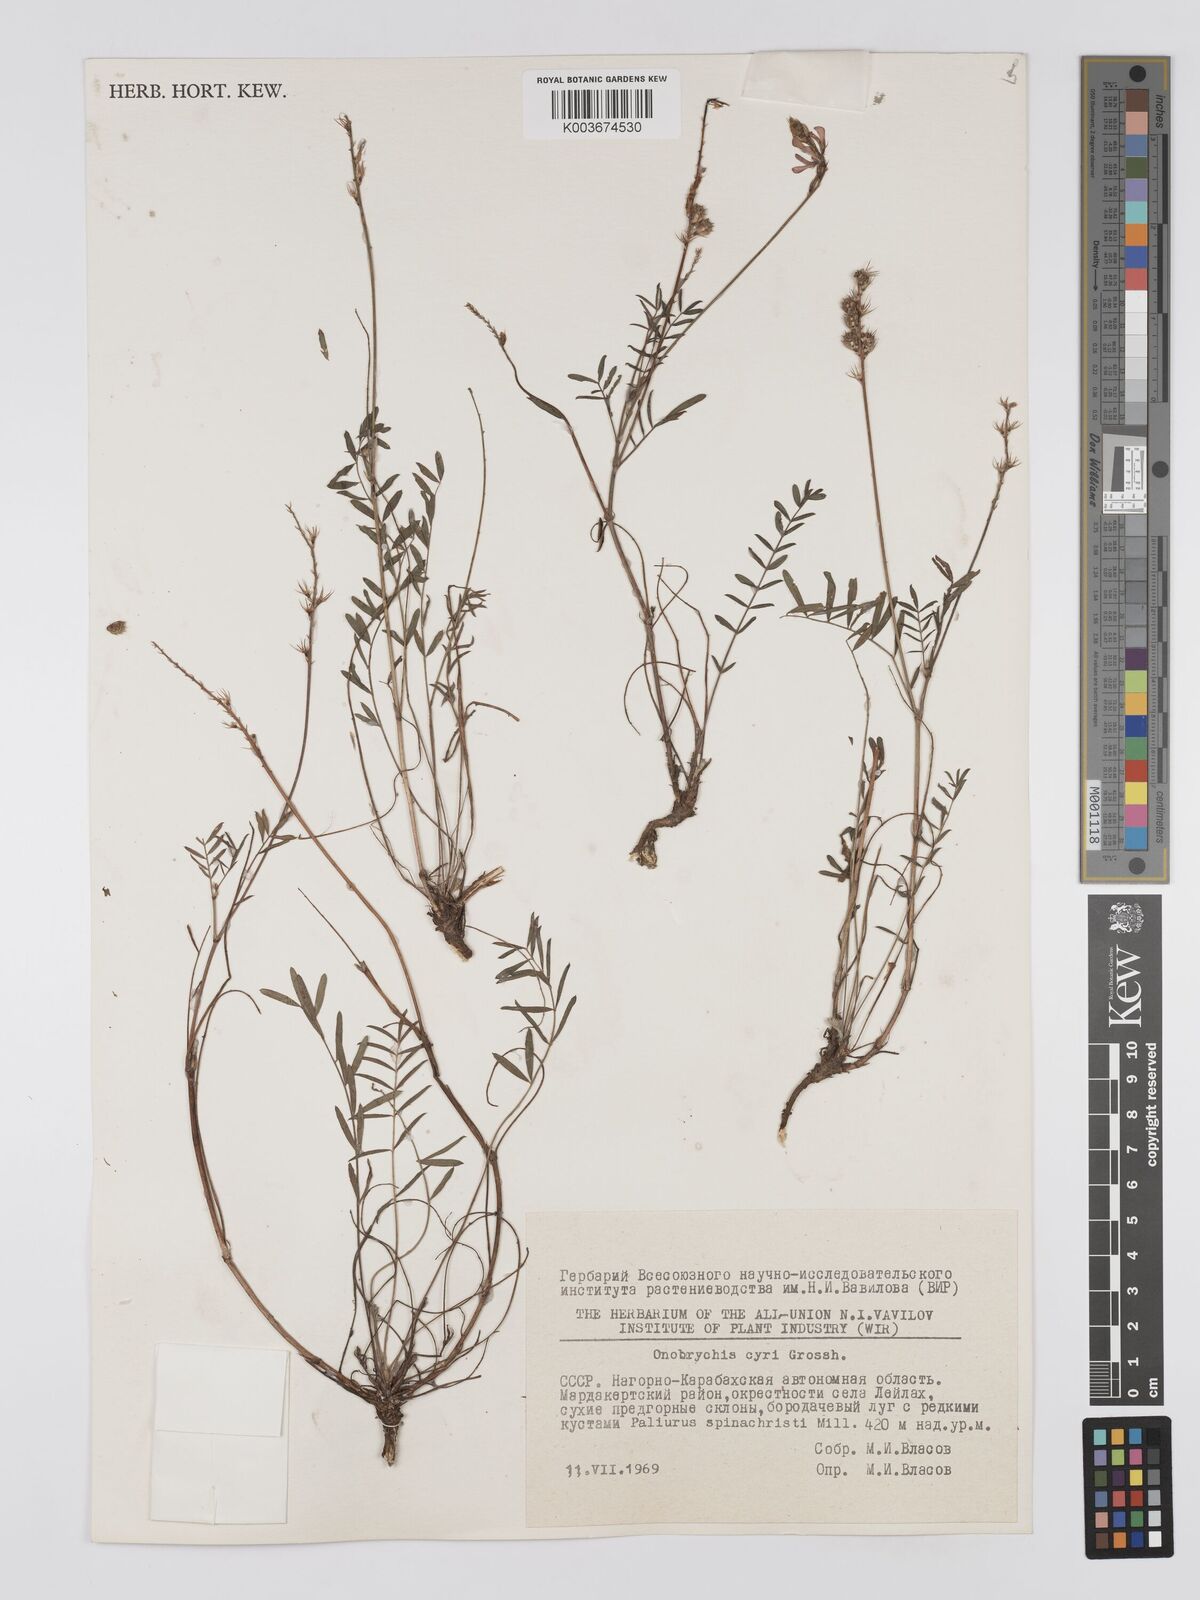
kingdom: Plantae
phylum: Tracheophyta
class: Magnoliopsida
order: Fabales
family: Fabaceae
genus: Onobrychis
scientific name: Onobrychis cyri
